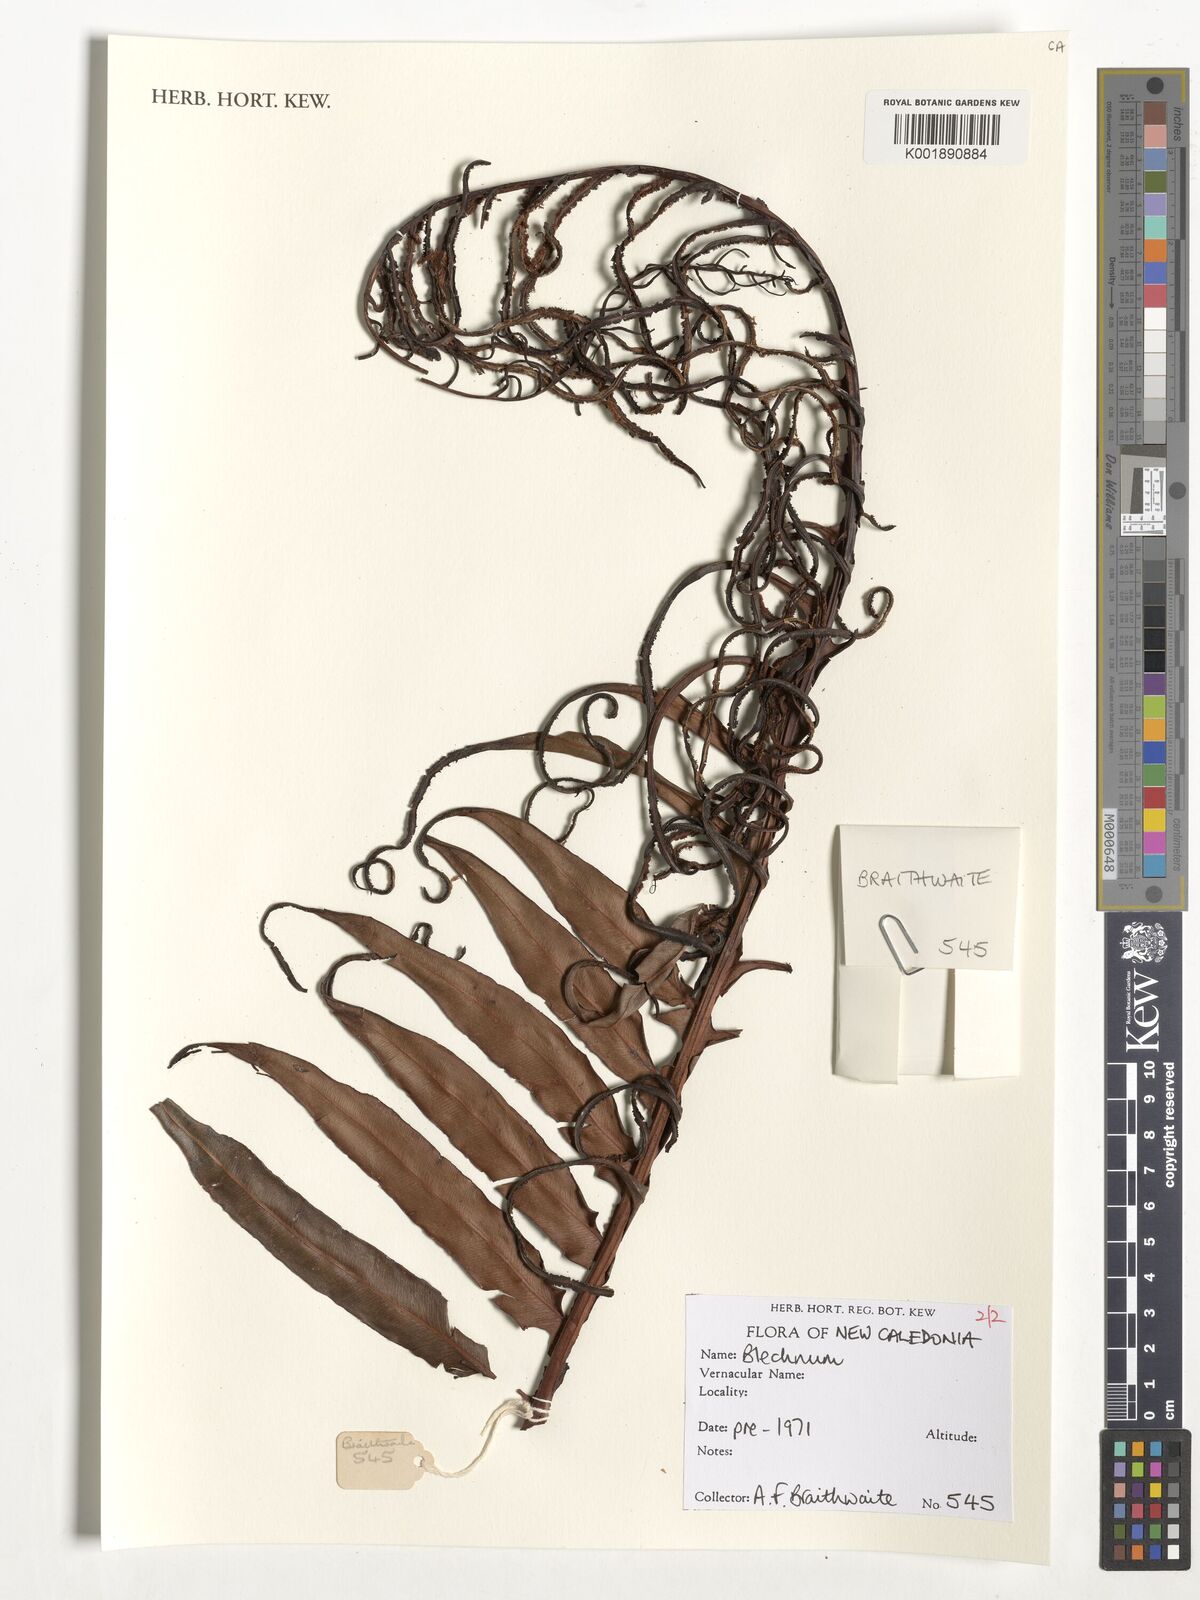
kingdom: Plantae
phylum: Tracheophyta
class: Polypodiopsida
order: Polypodiales
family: Blechnaceae
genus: Blechnum
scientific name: Blechnum
